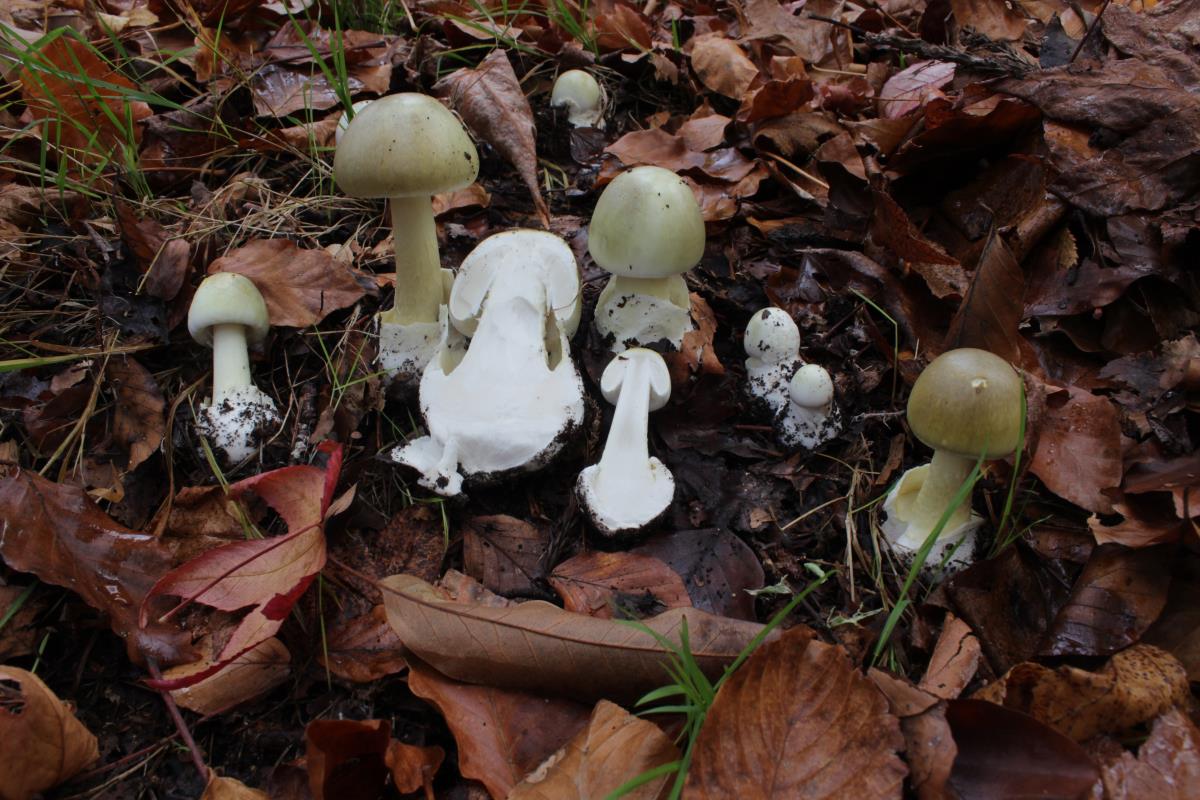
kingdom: Fungi
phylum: Basidiomycota
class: Agaricomycetes
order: Agaricales
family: Amanitaceae
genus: Amanita
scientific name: Amanita phalloides
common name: Death cap
